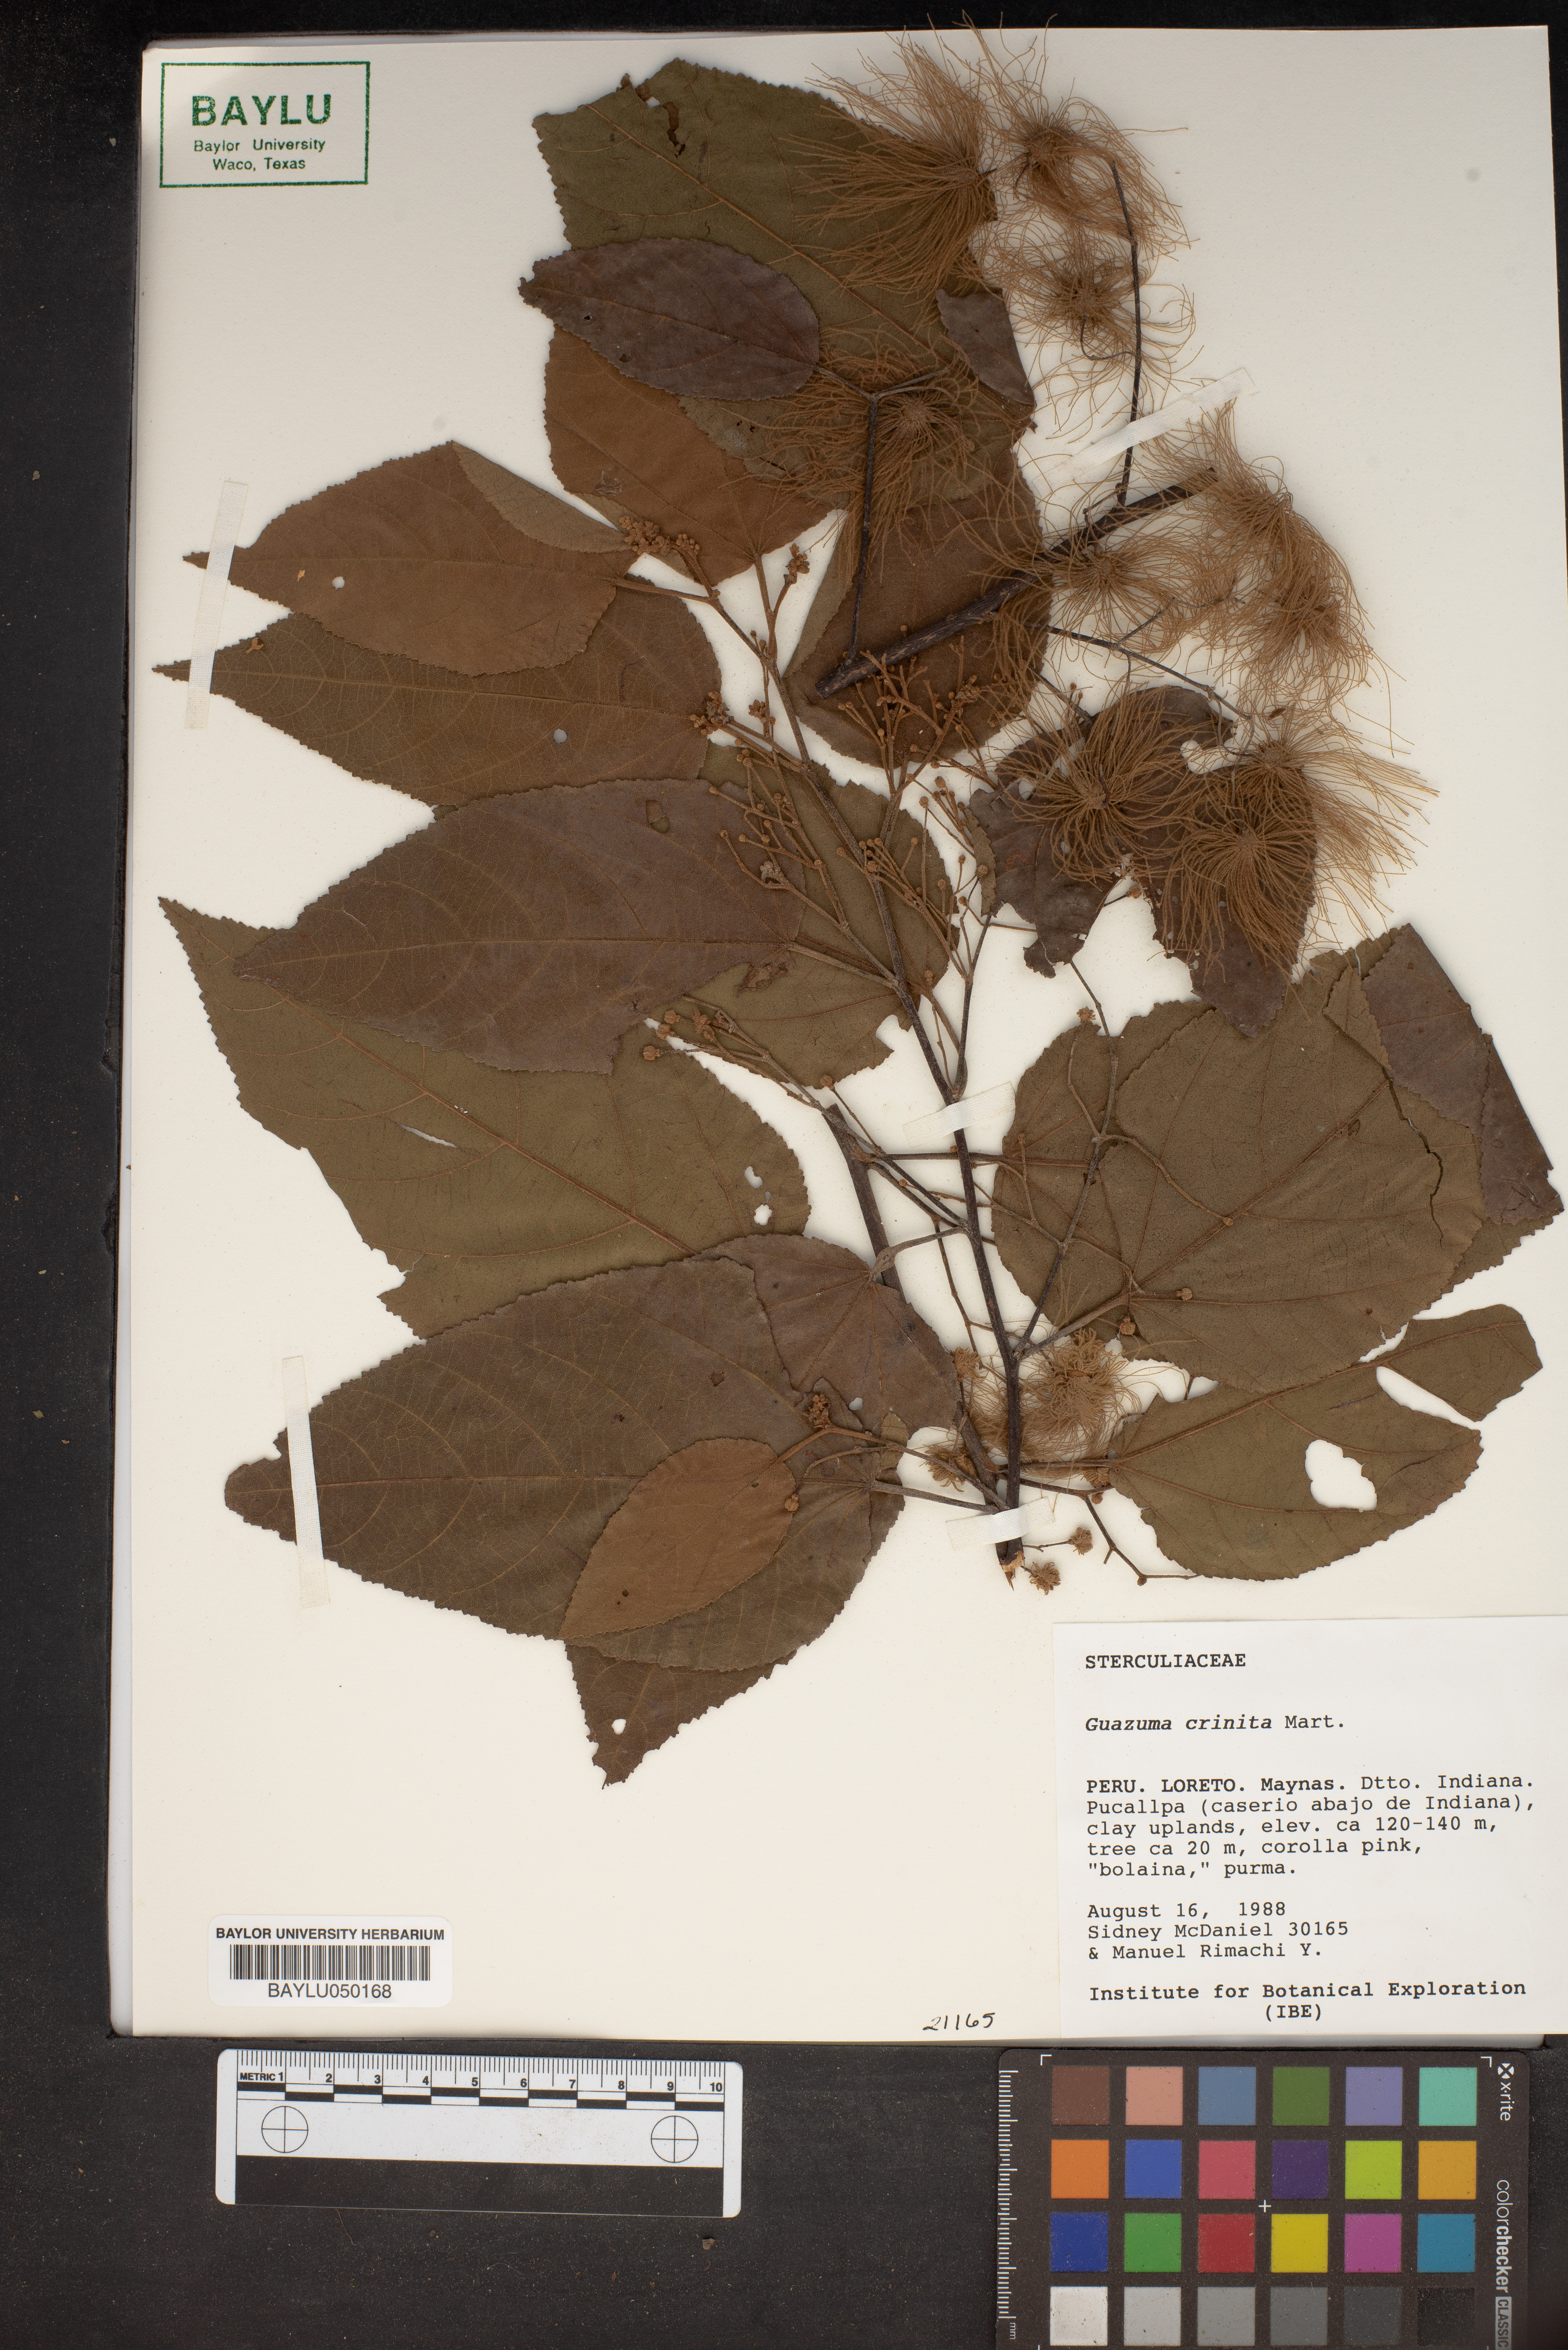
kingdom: Plantae
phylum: Tracheophyta
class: Magnoliopsida
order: Malvales
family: Malvaceae
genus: Guazuma
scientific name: Guazuma crinita
